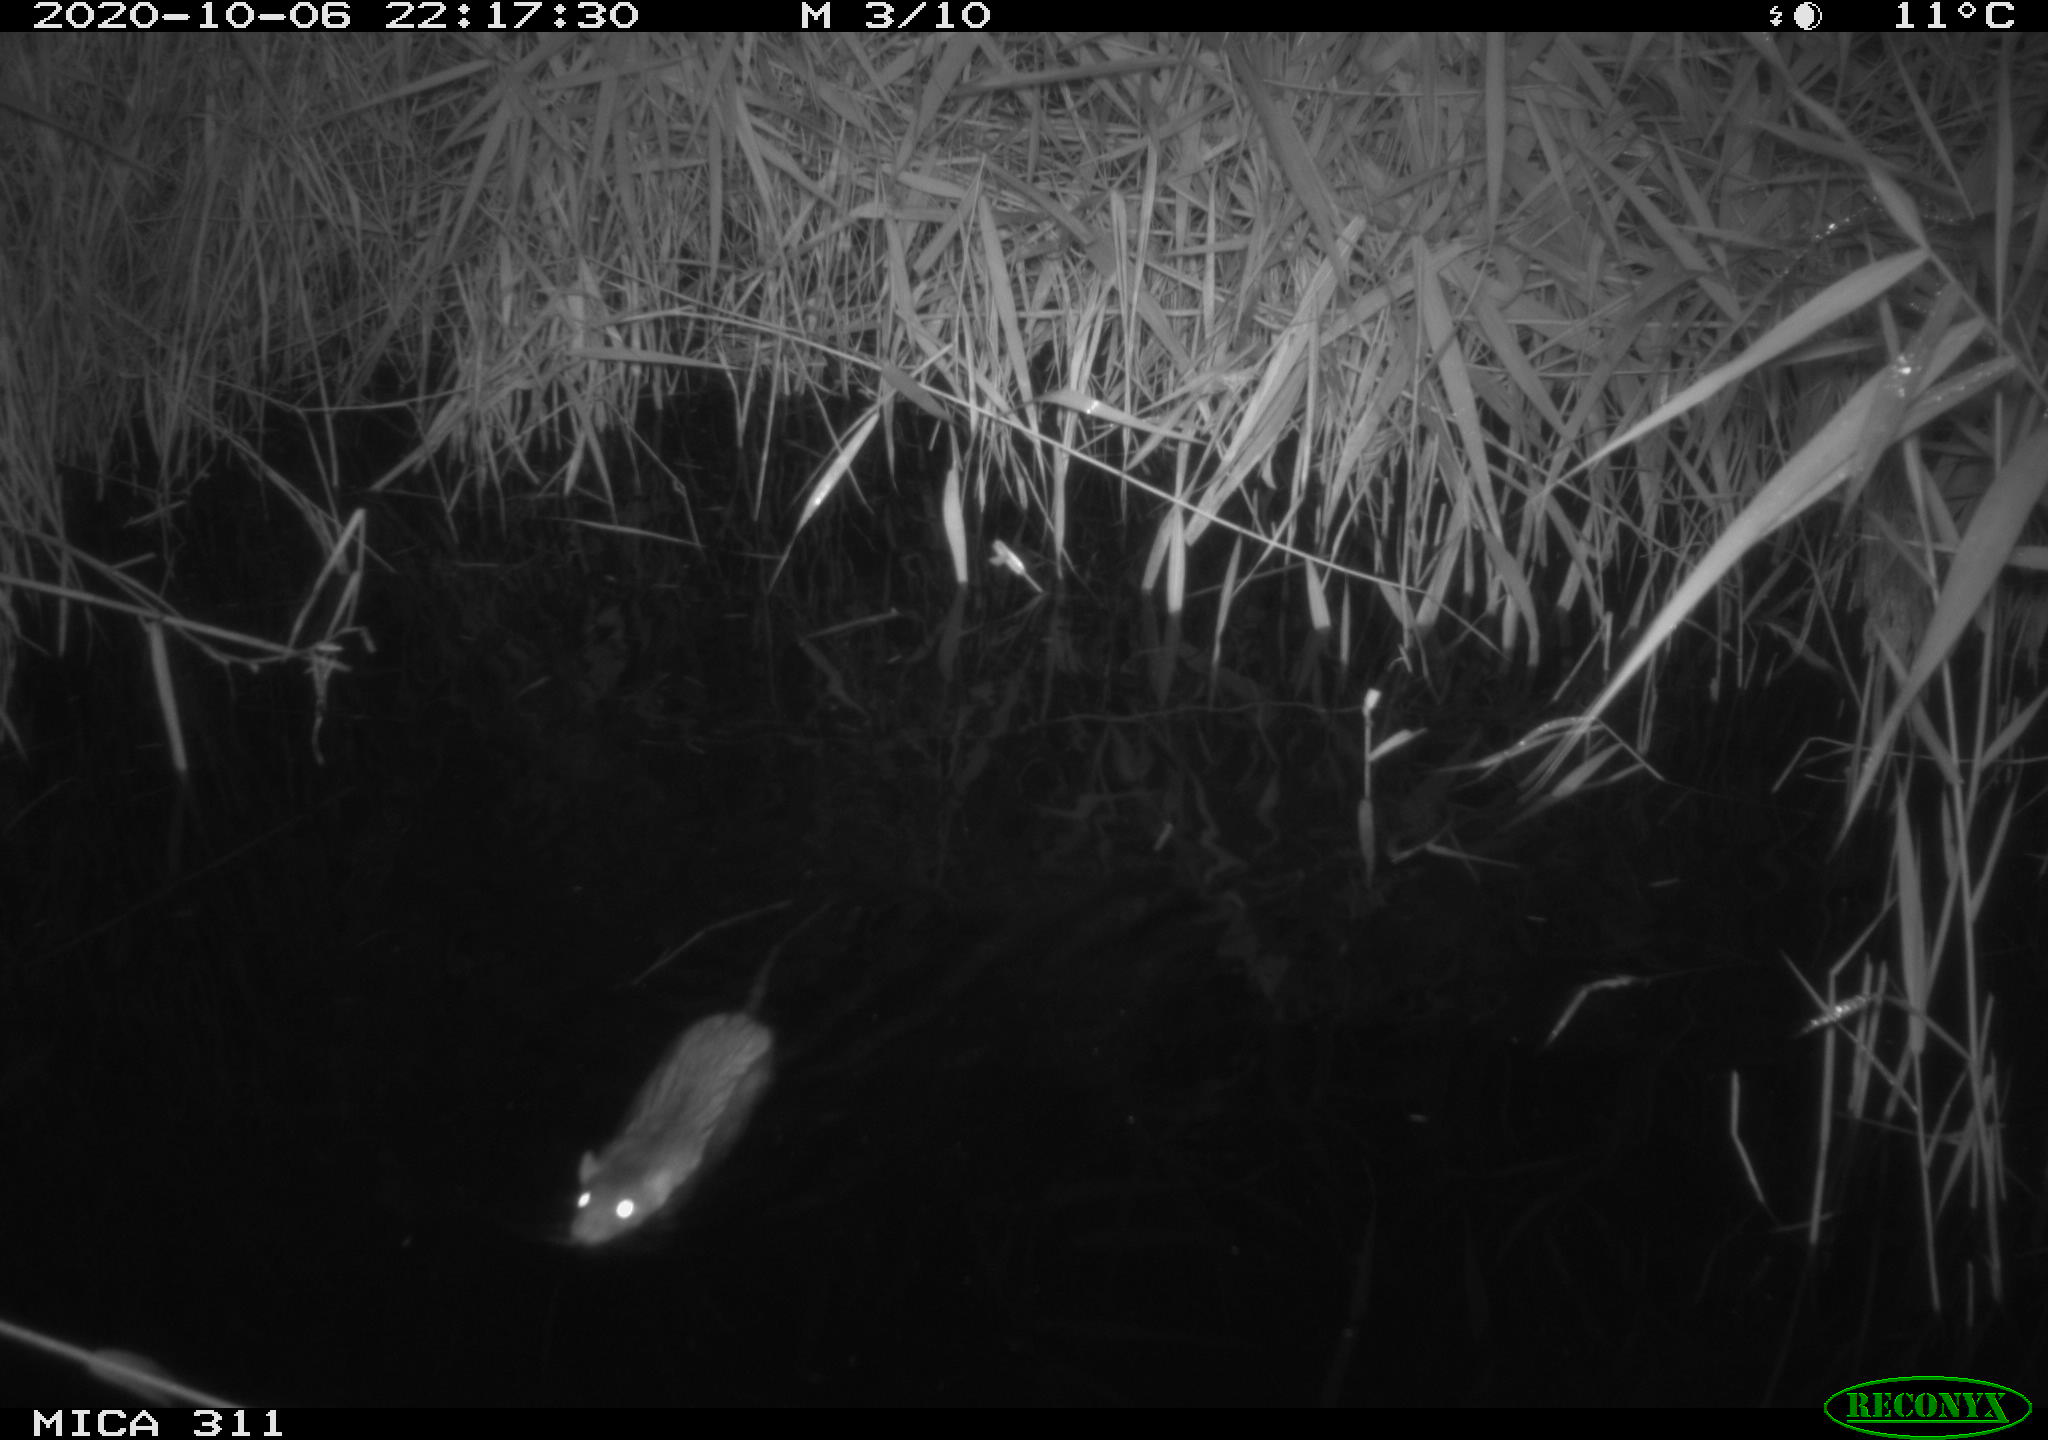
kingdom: Animalia
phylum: Chordata
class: Mammalia
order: Rodentia
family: Muridae
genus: Rattus
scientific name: Rattus norvegicus
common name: Brown rat
